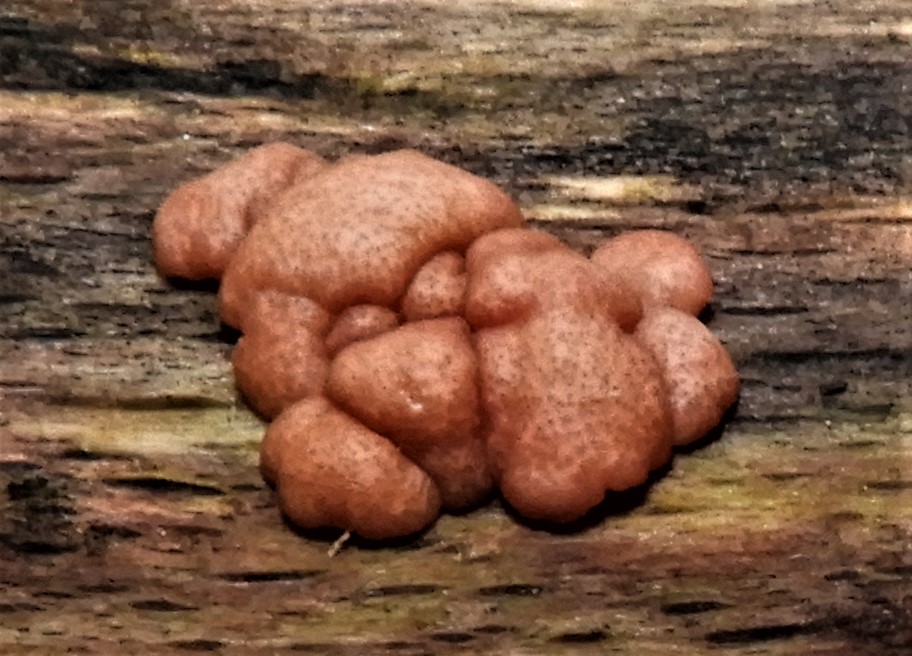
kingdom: Fungi
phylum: Ascomycota
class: Sordariomycetes
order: Hypocreales
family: Hypocreaceae
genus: Trichoderma
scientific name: Trichoderma europaeum
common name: rosabrun kødkerne
